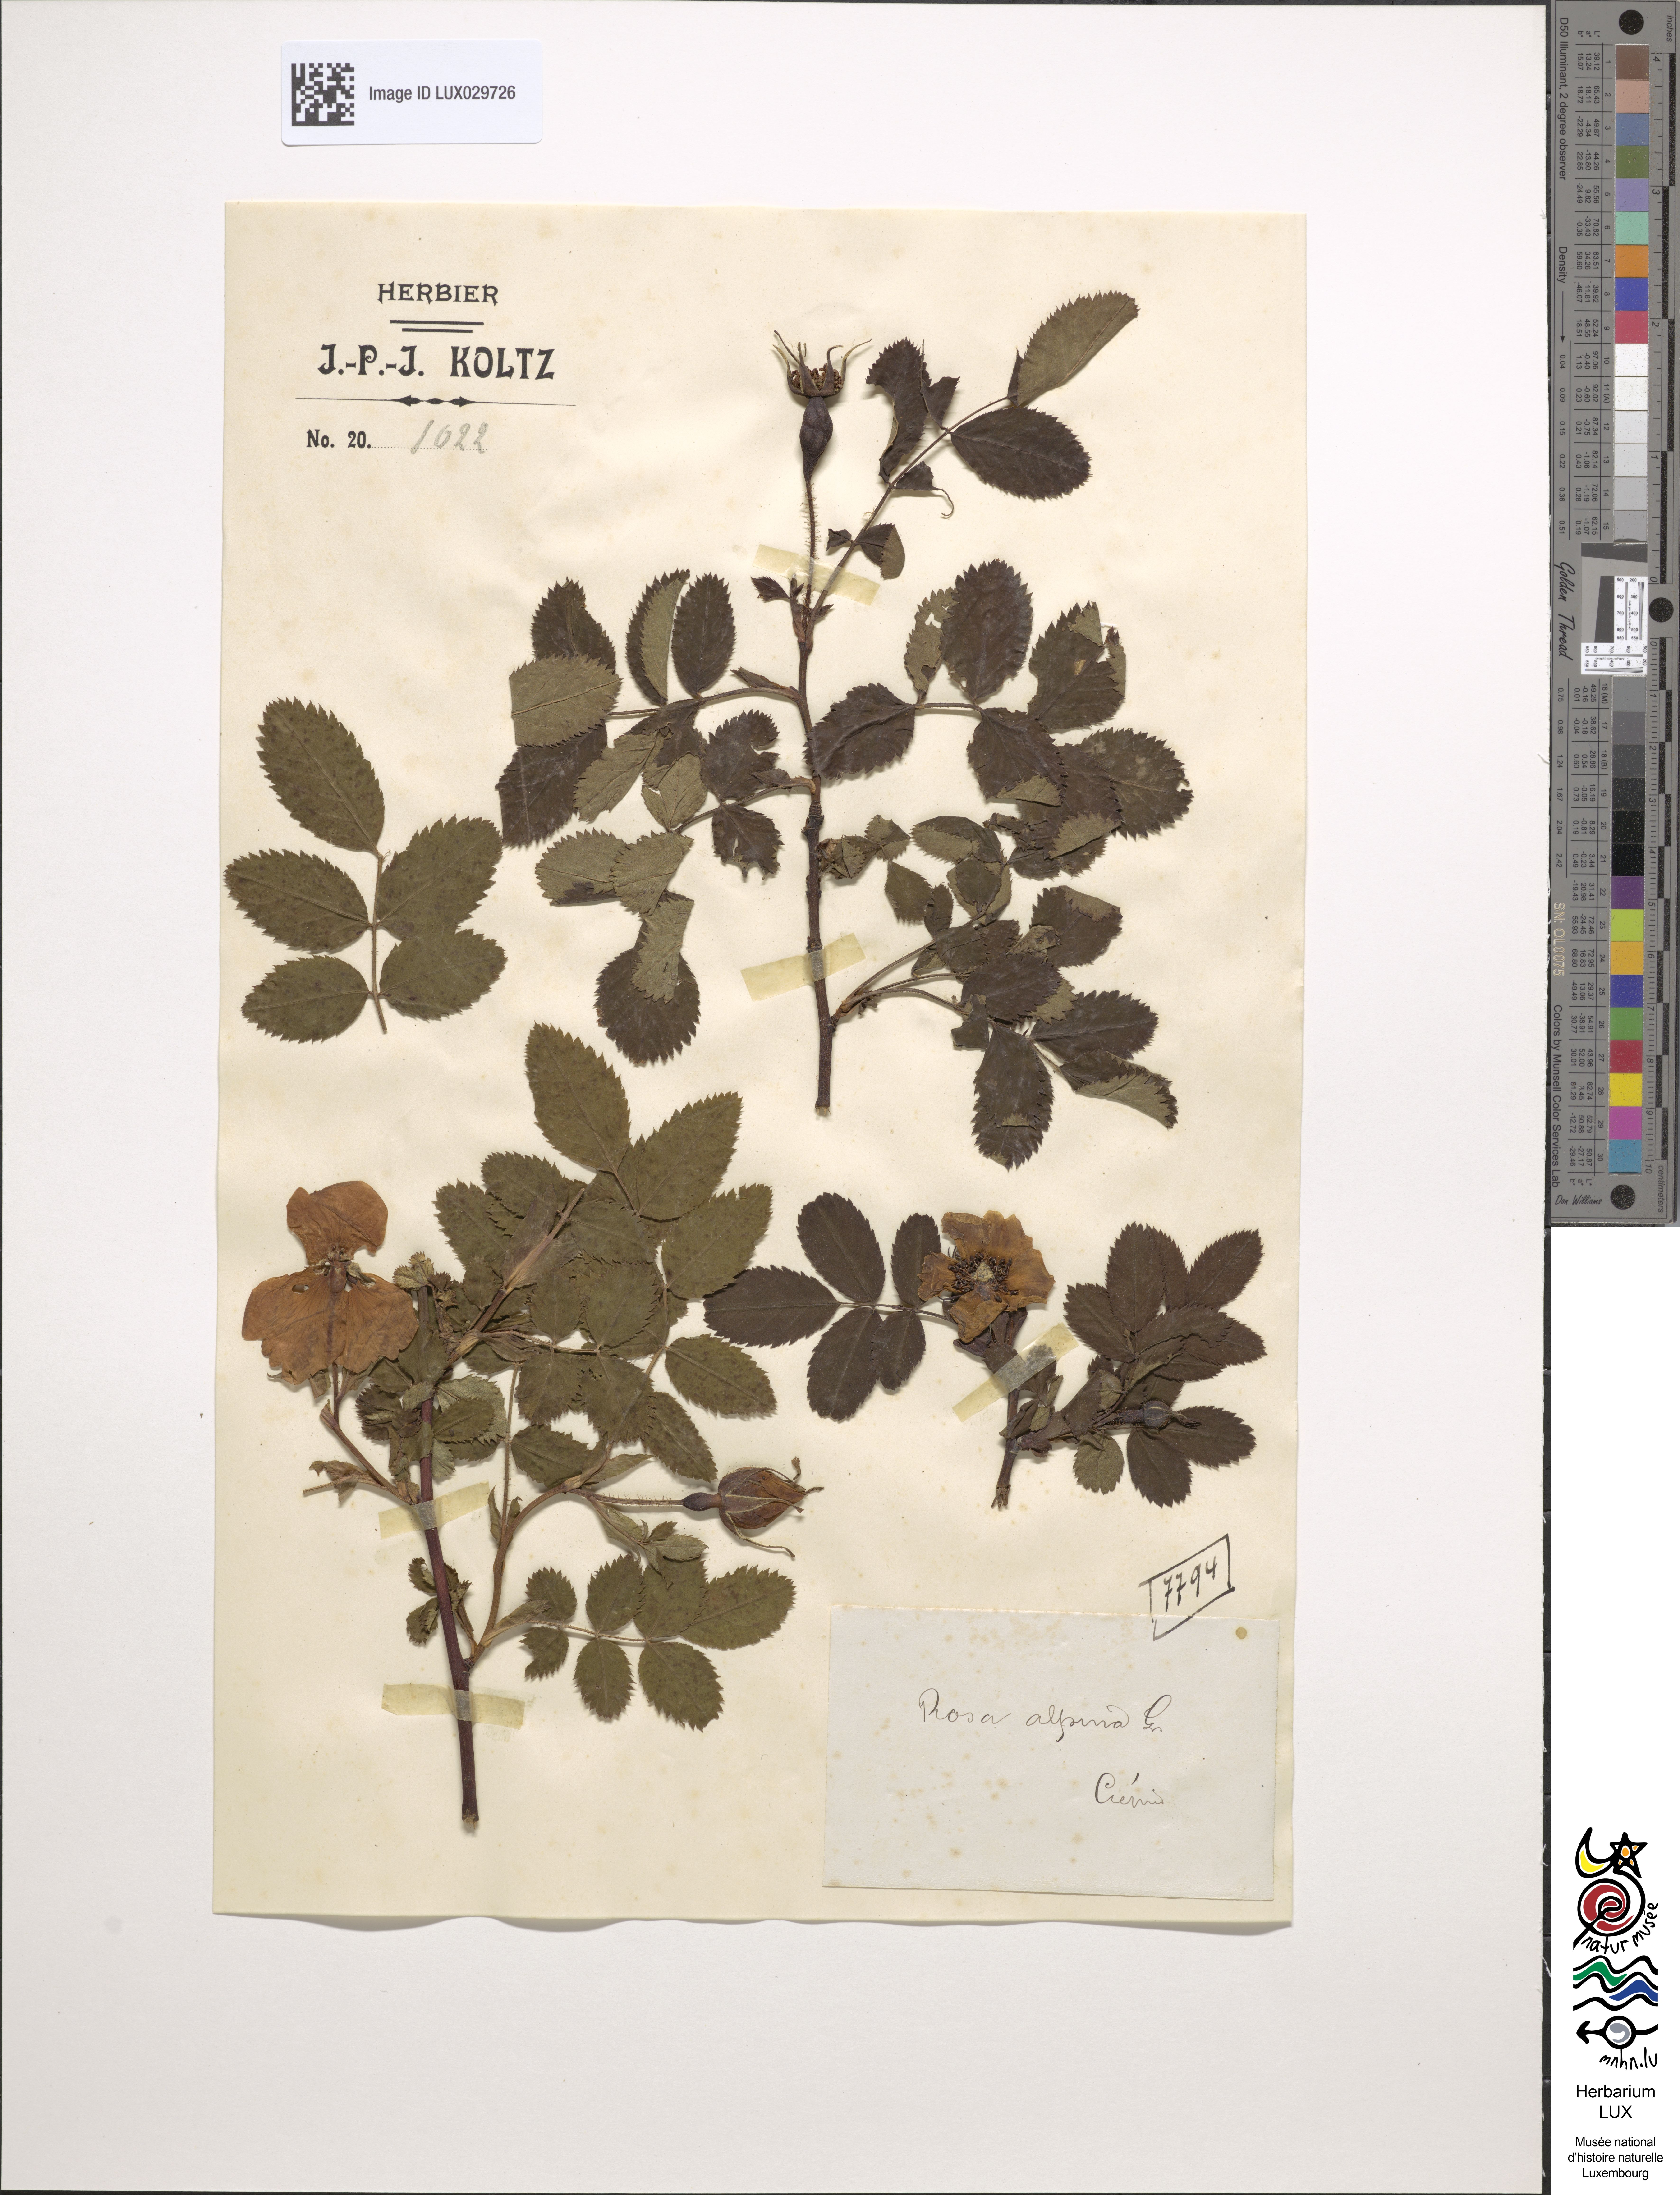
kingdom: Plantae
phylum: Tracheophyta
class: Magnoliopsida
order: Rosales
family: Rosaceae
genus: Rosa
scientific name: Rosa pendulina
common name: Alpine rose
